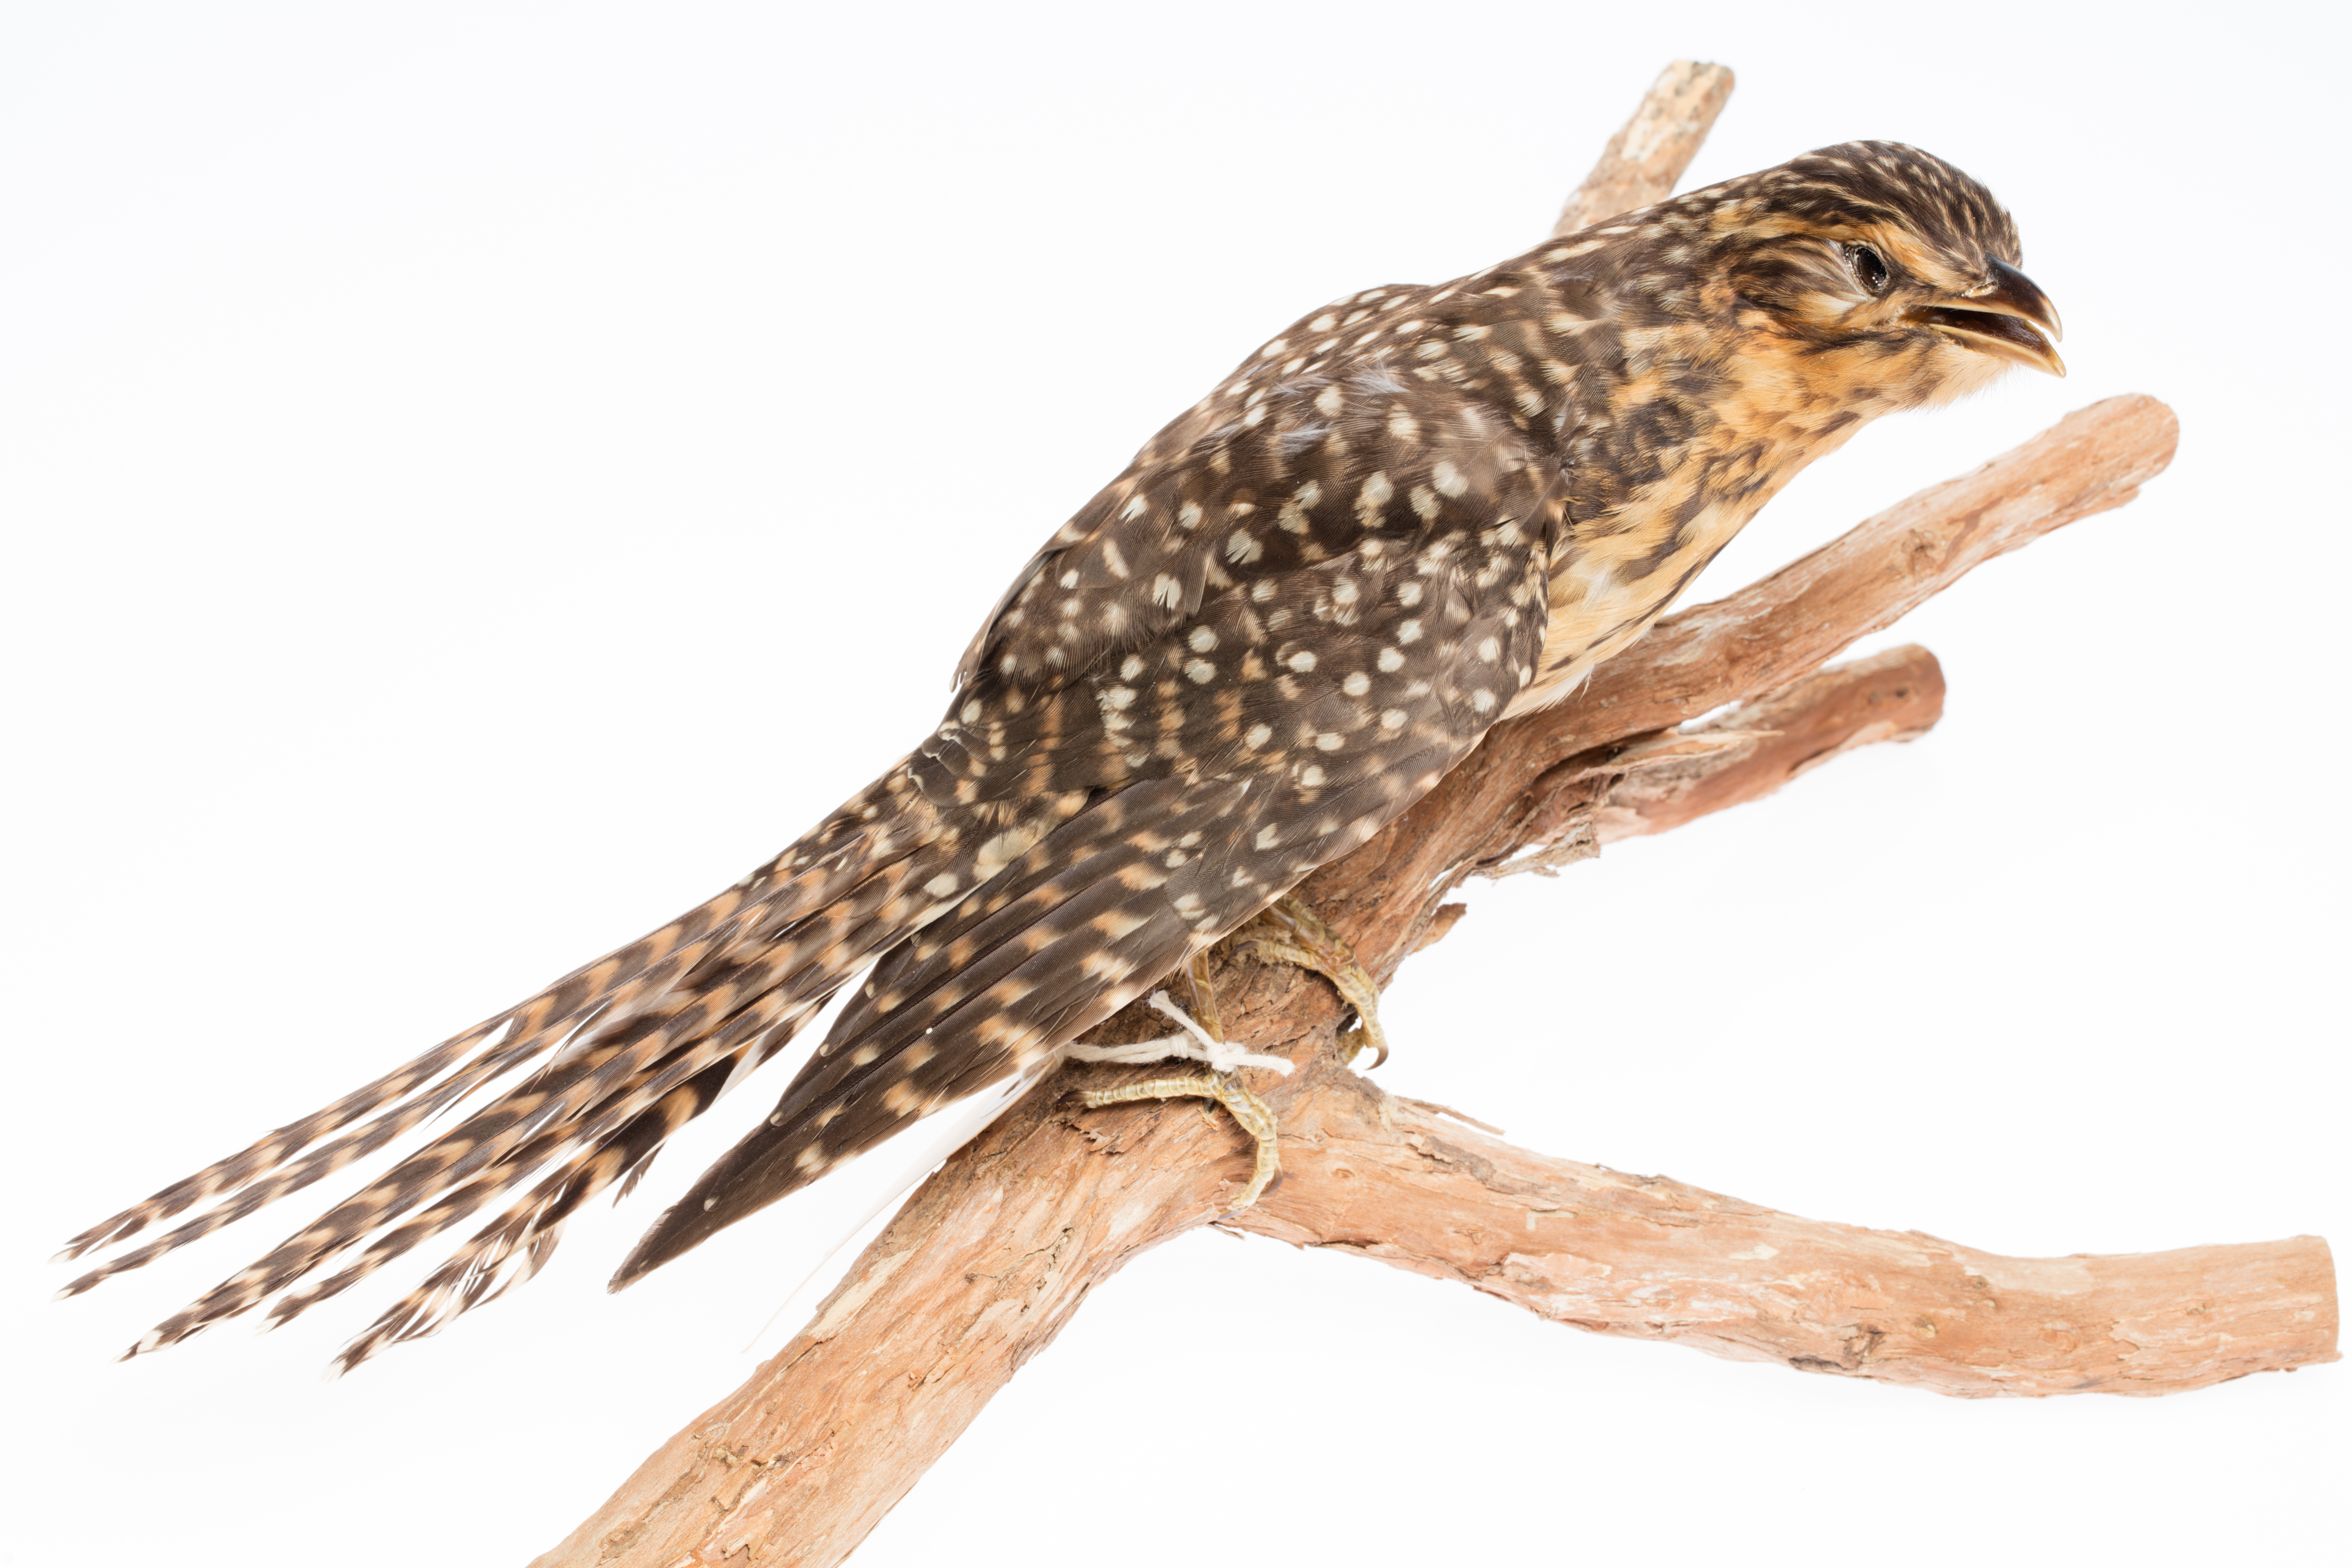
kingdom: Animalia
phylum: Chordata
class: Aves
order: Cuculiformes
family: Cuculidae
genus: Urodynamis
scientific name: Urodynamis taitensis
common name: Long-tailed koel
